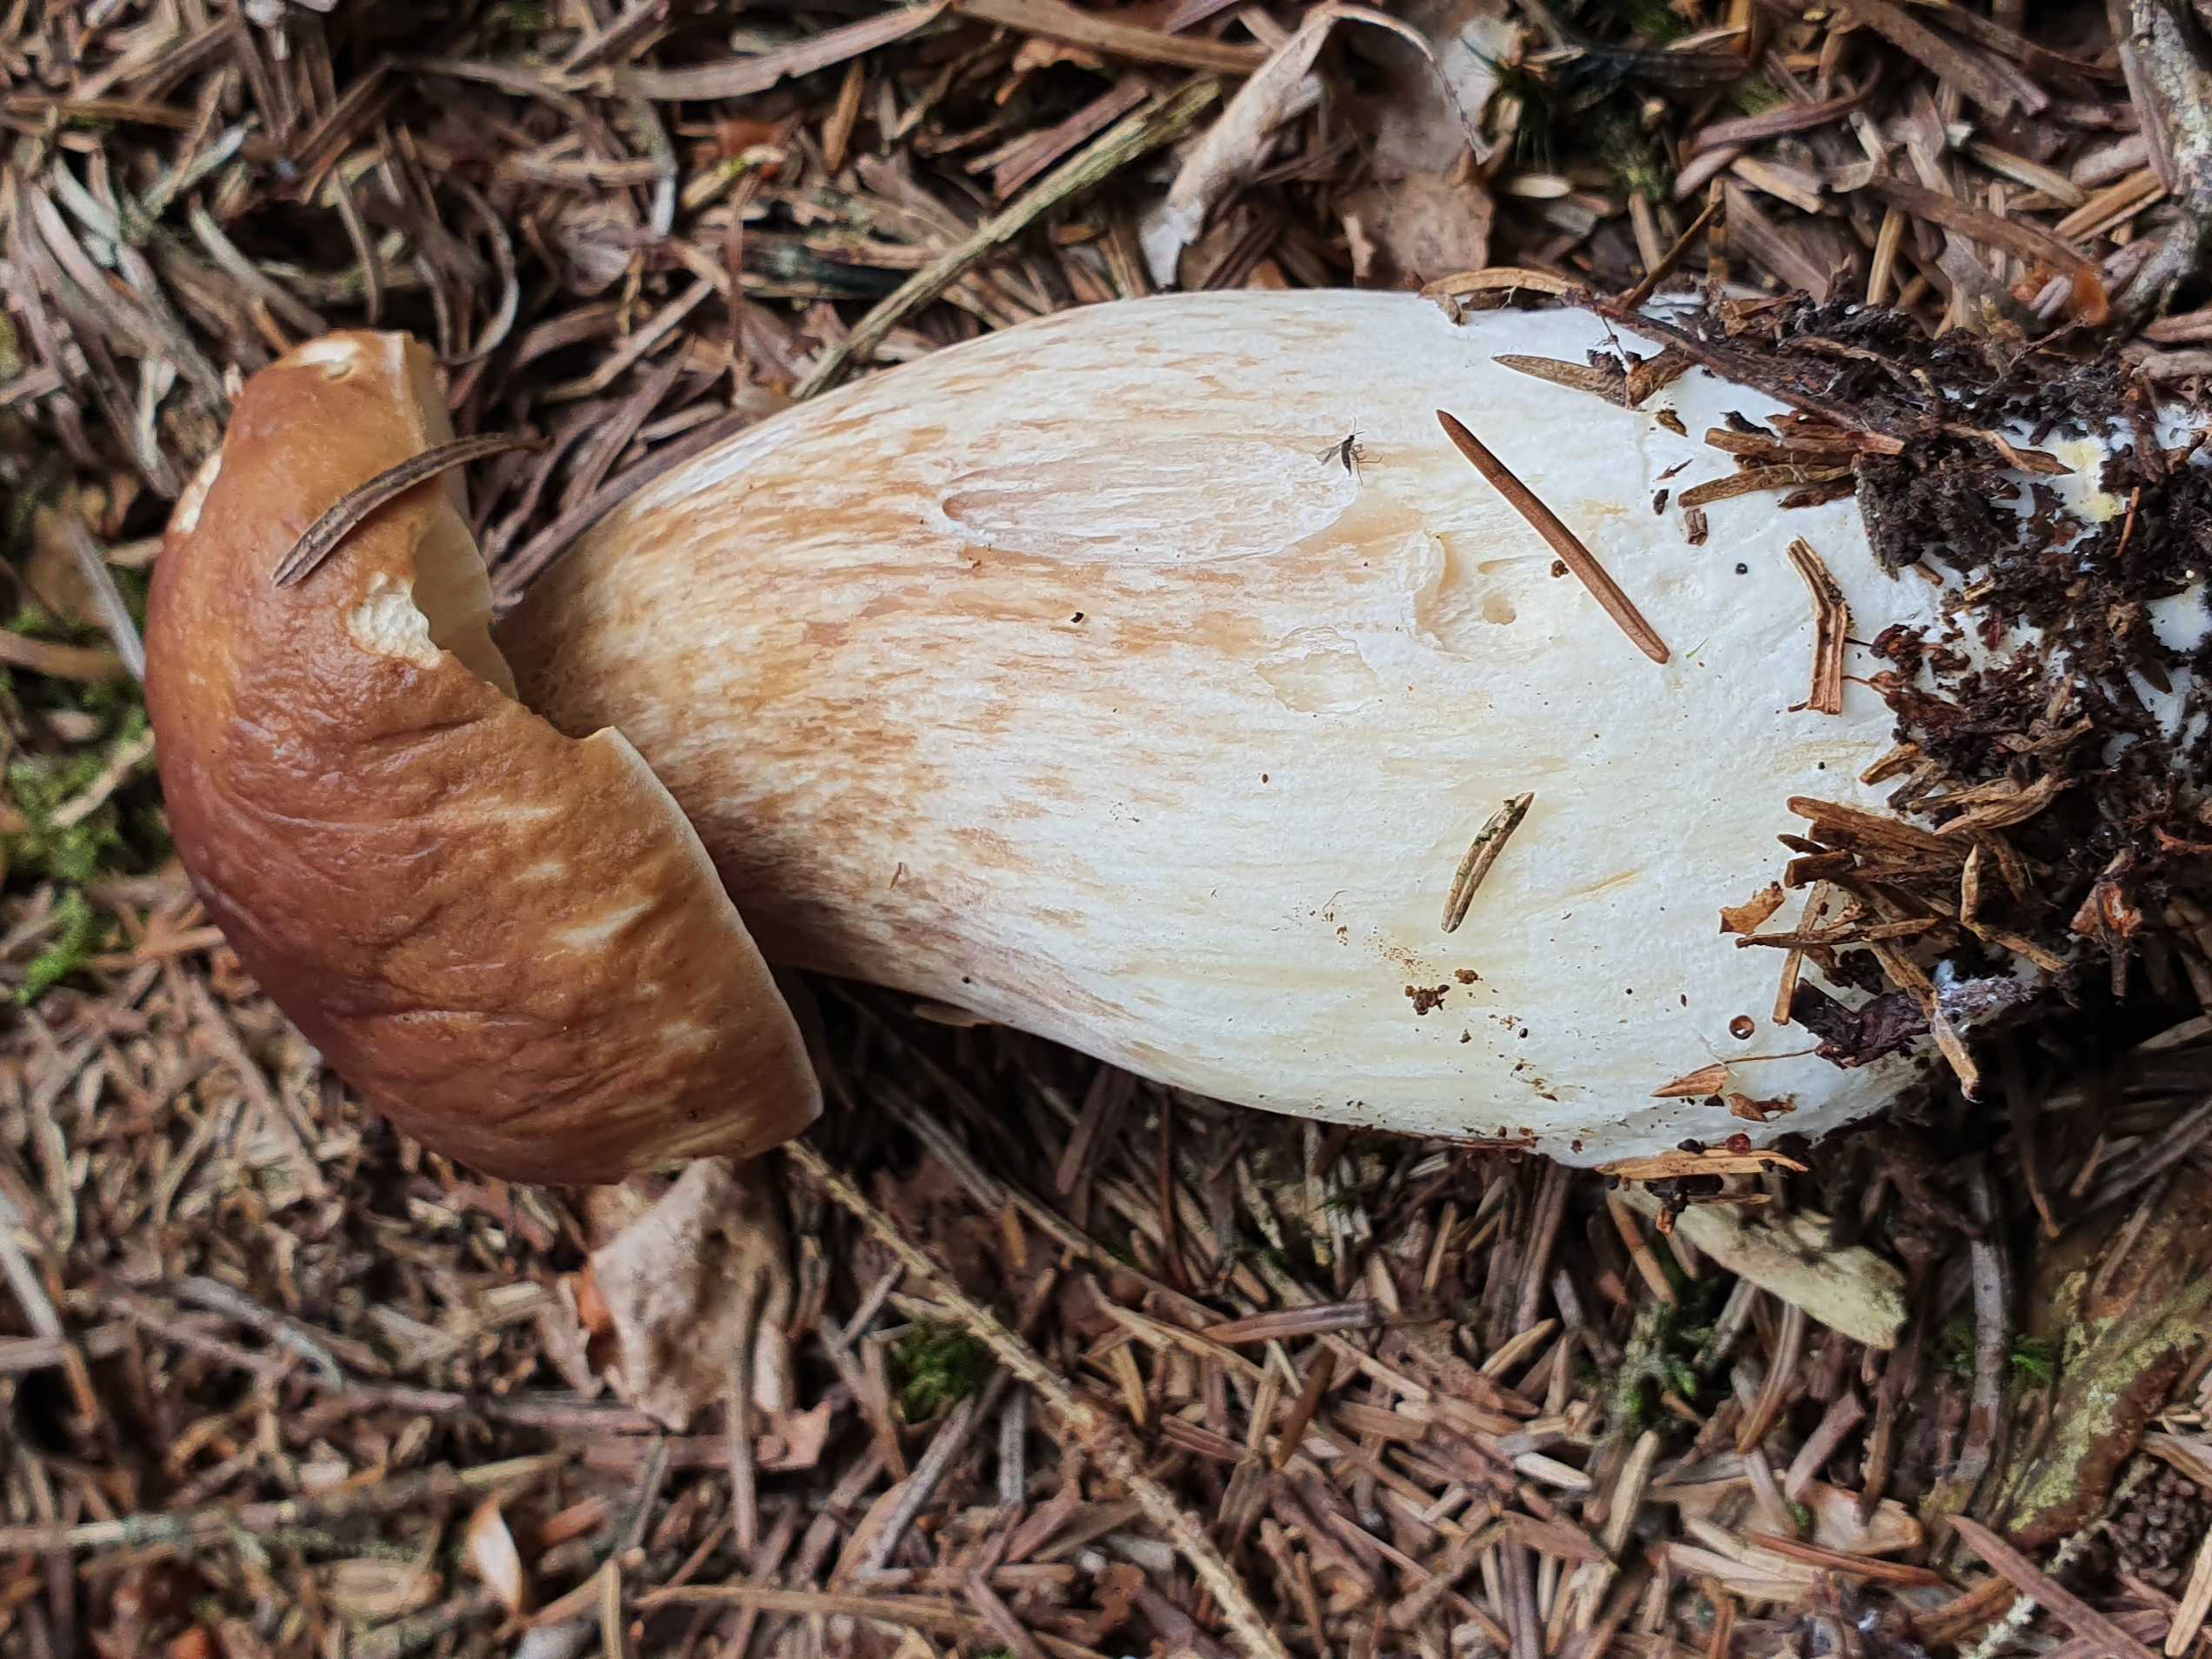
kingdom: Fungi
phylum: Basidiomycota
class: Agaricomycetes
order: Boletales
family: Boletaceae
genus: Boletus
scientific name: Boletus edulis
